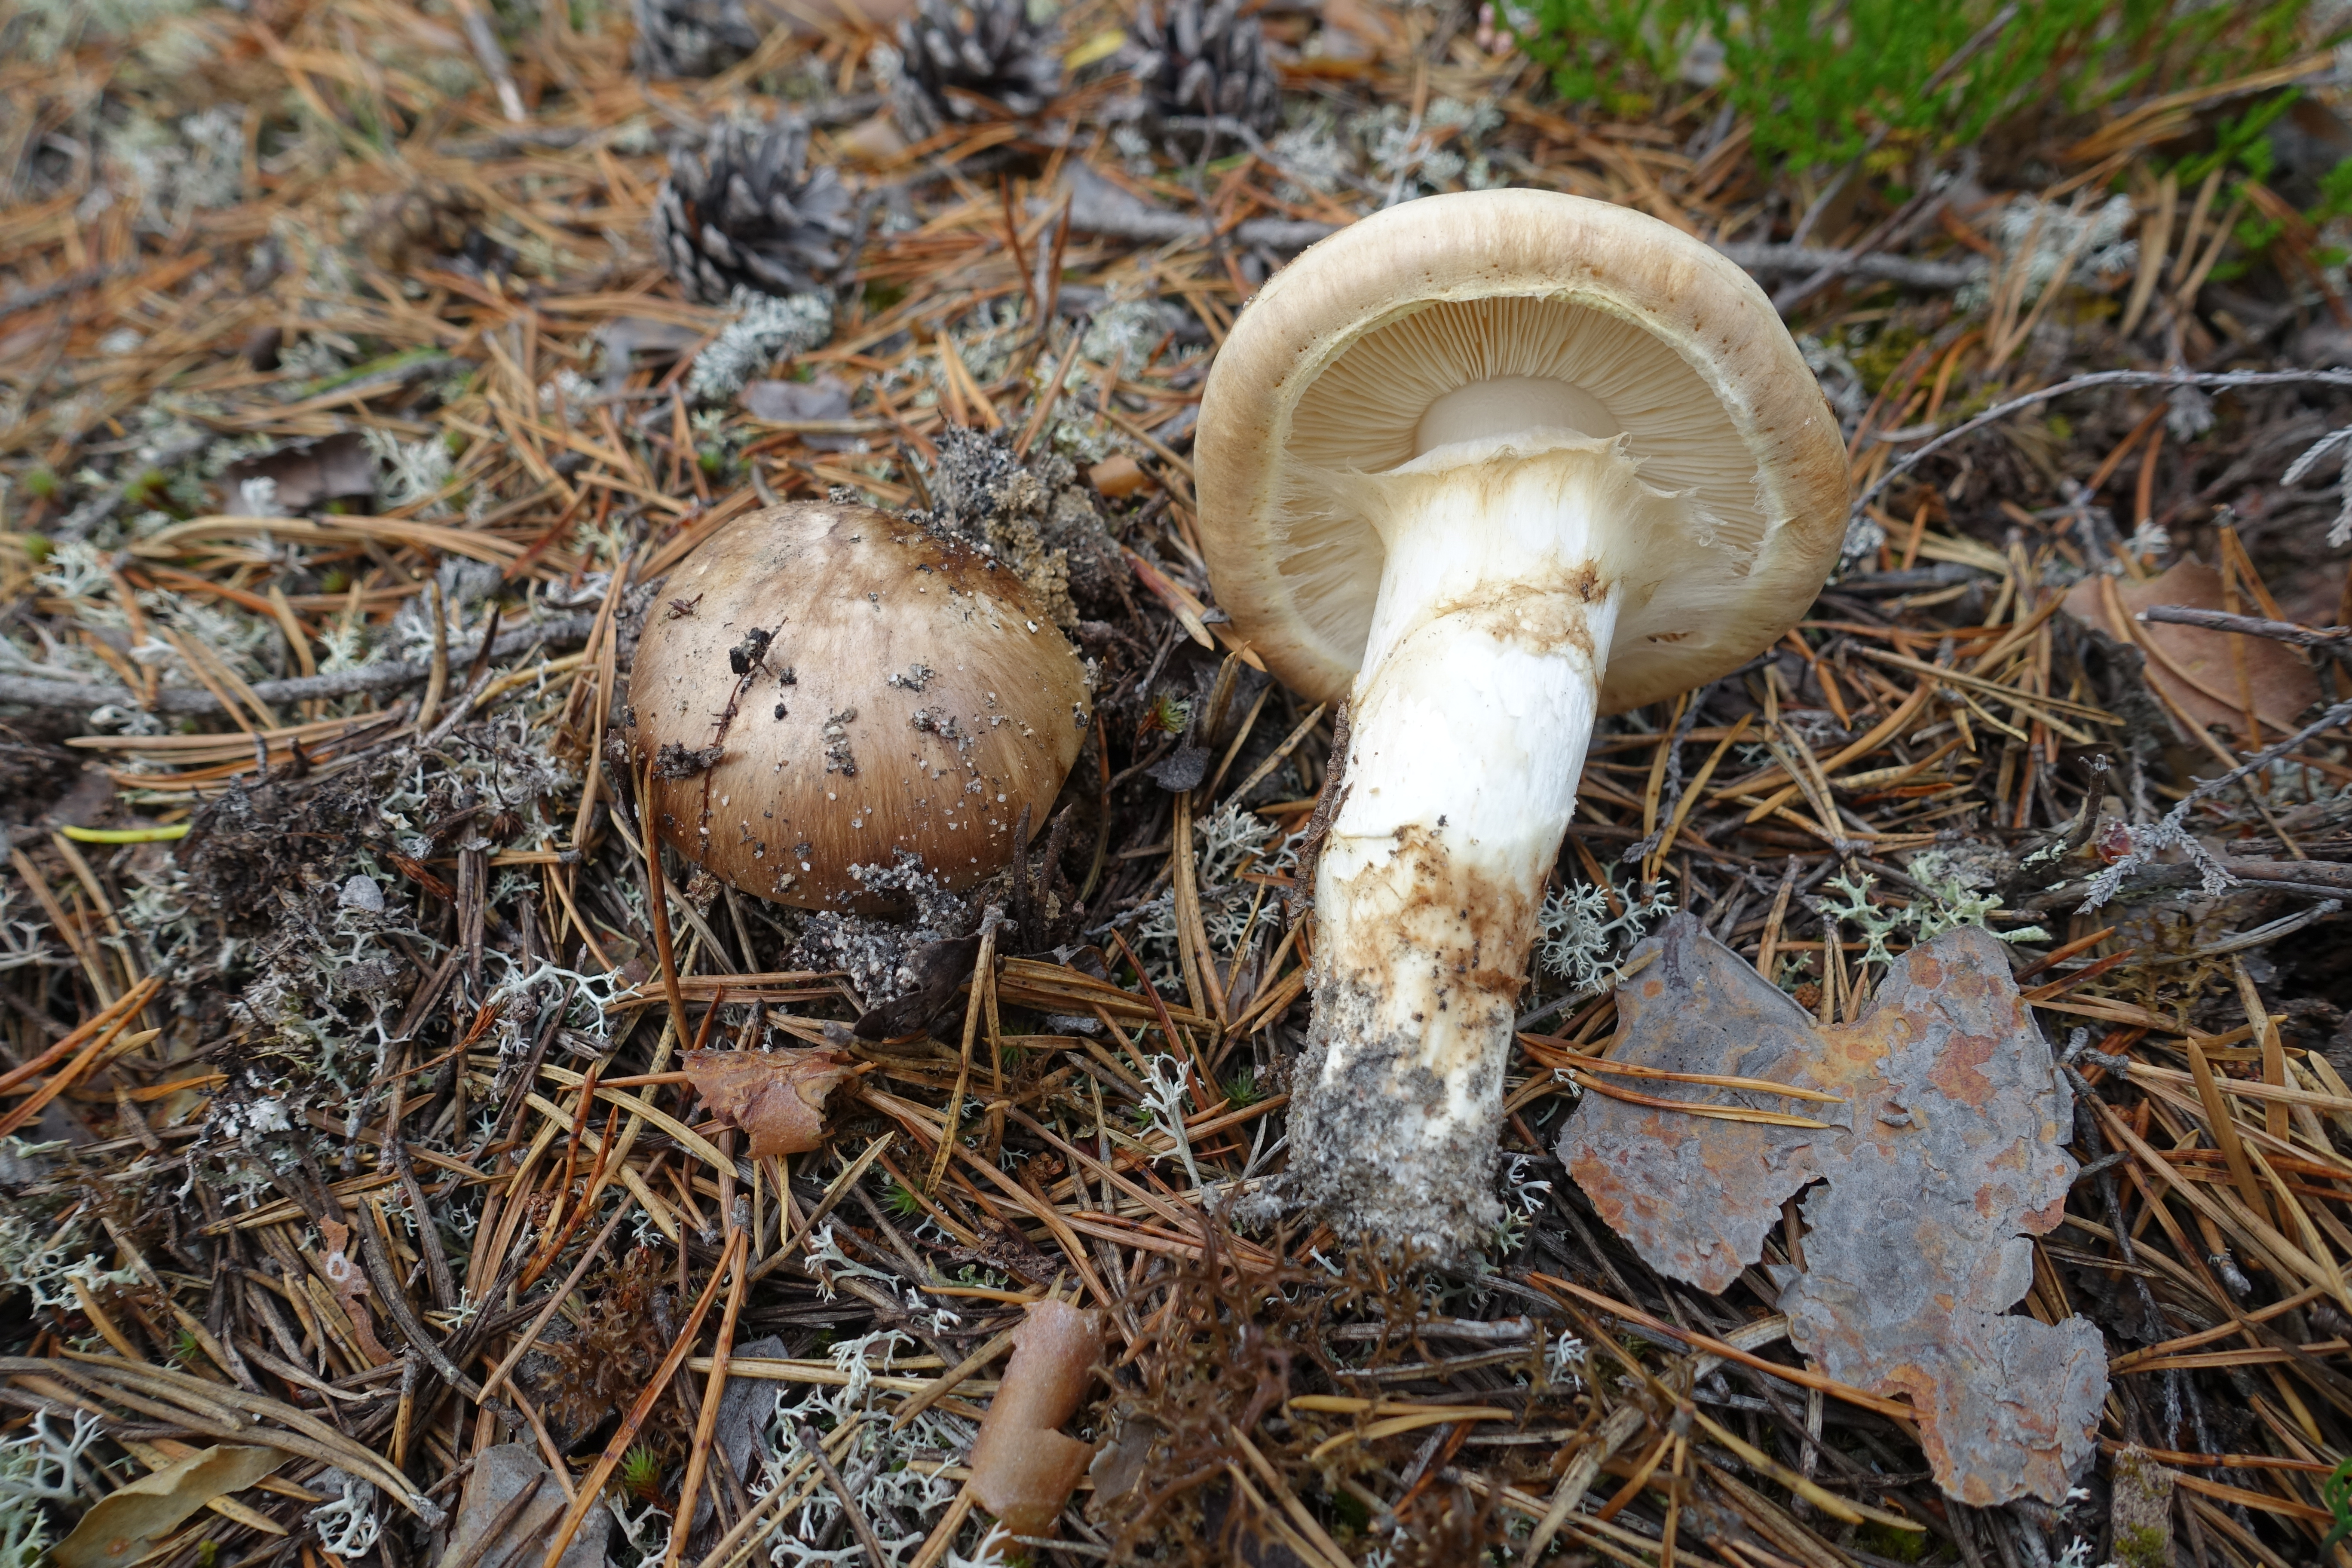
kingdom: Fungi
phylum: Basidiomycota
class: Agaricomycetes
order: Agaricales
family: Tricholomataceae
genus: Tricholoma
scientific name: Tricholoma matsutake
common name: Matsutake
